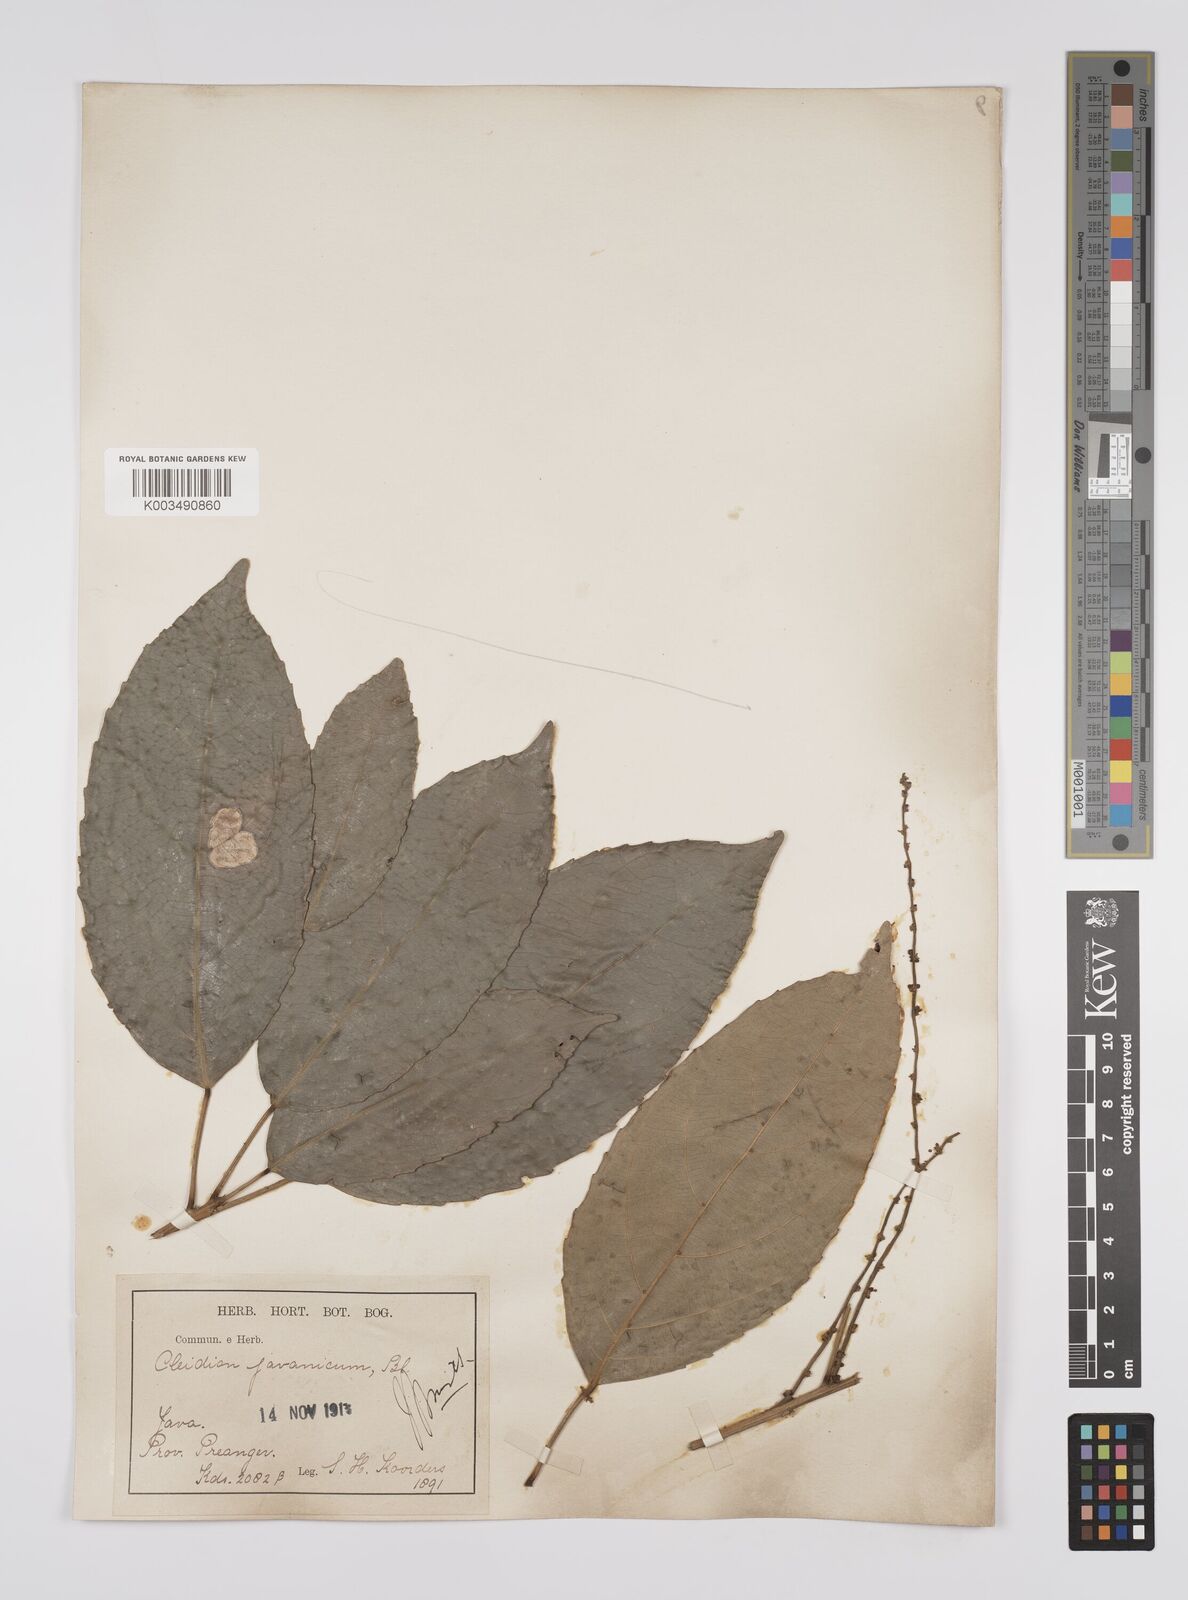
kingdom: Plantae
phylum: Tracheophyta
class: Magnoliopsida
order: Malpighiales
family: Euphorbiaceae
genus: Acalypha
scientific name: Acalypha spiciflora
